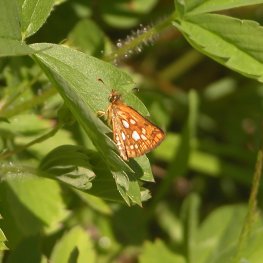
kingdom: Animalia
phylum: Arthropoda
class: Insecta
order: Lepidoptera
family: Hesperiidae
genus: Carterocephalus
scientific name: Carterocephalus palaemon
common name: Chequered Skipper
